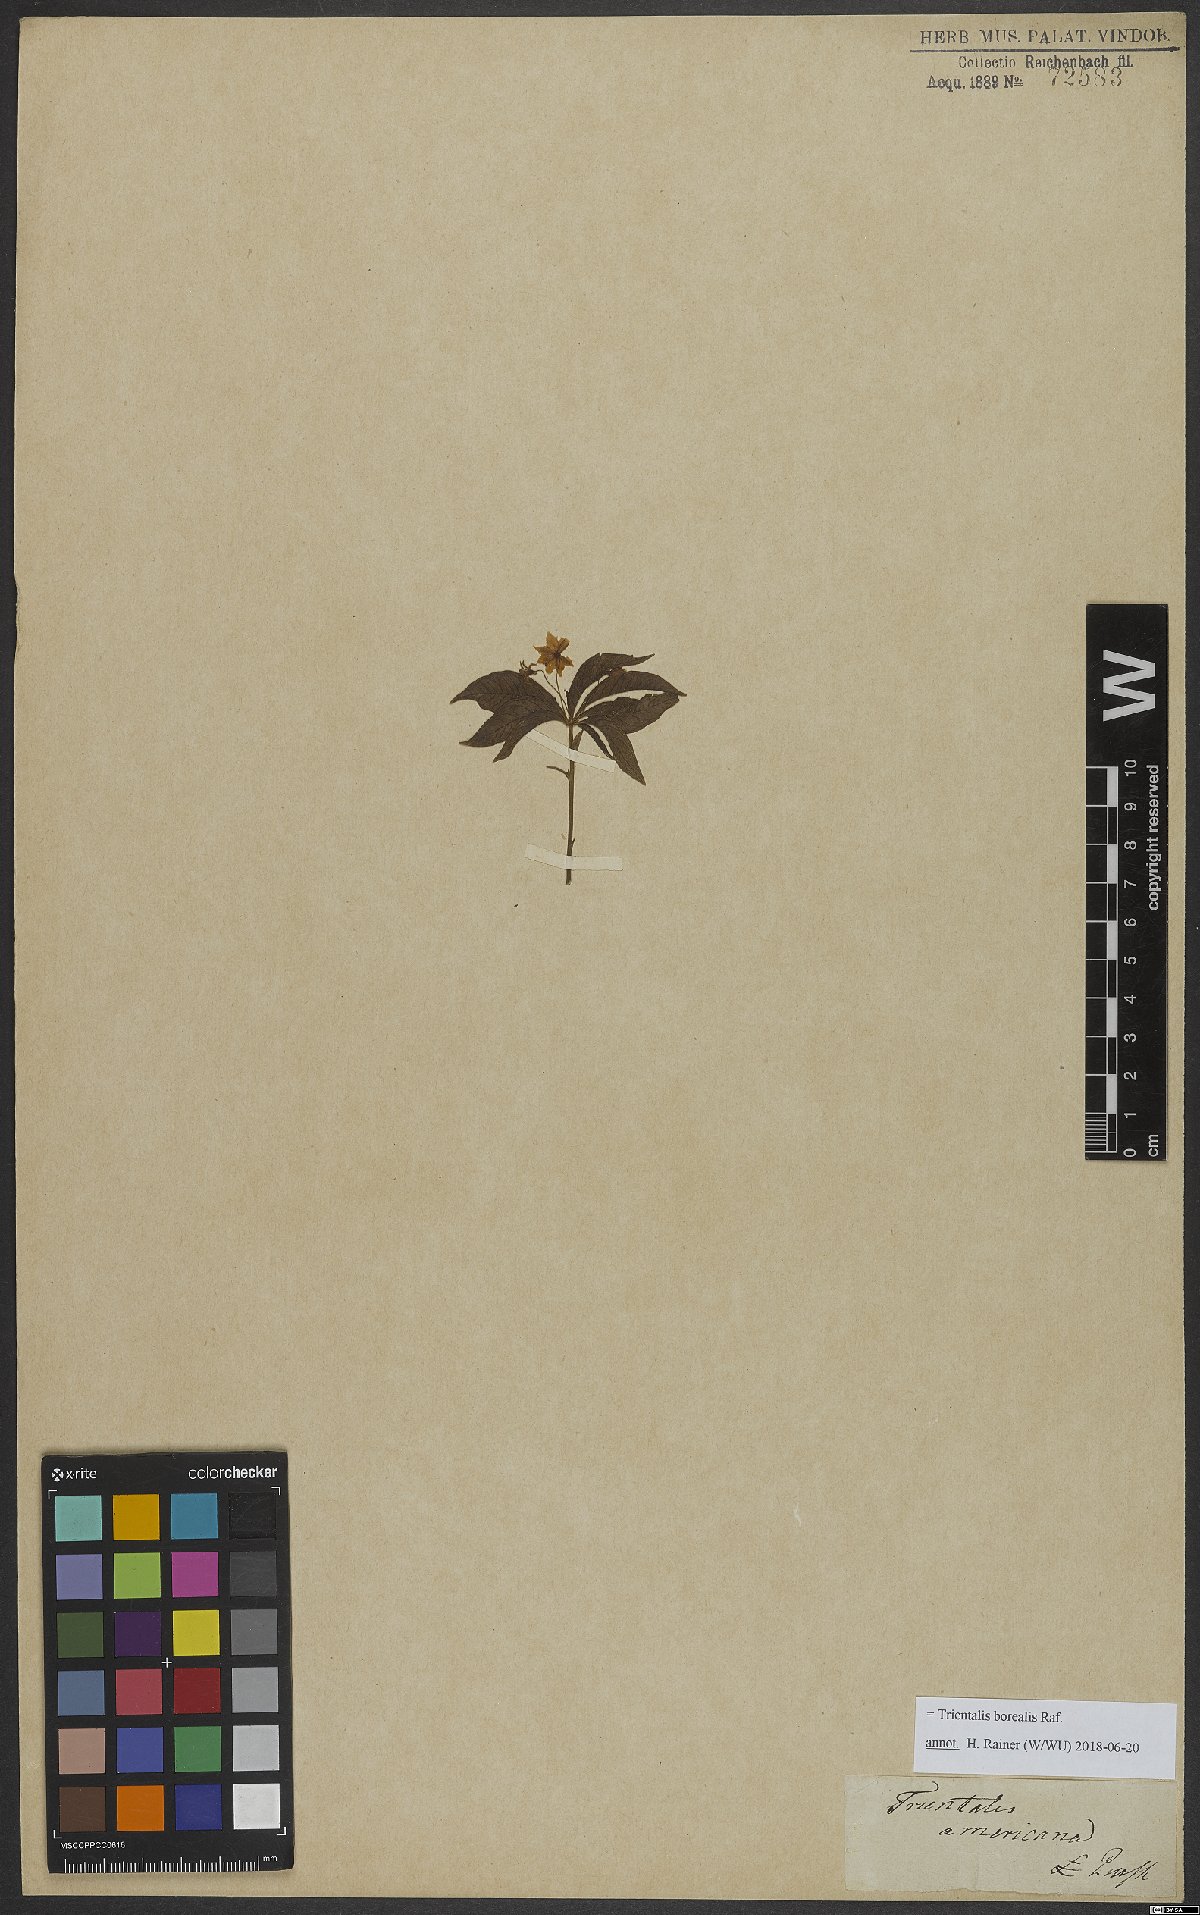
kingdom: Plantae
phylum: Tracheophyta
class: Magnoliopsida
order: Ericales
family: Primulaceae
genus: Lysimachia
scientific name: Lysimachia borealis
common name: American starflower
